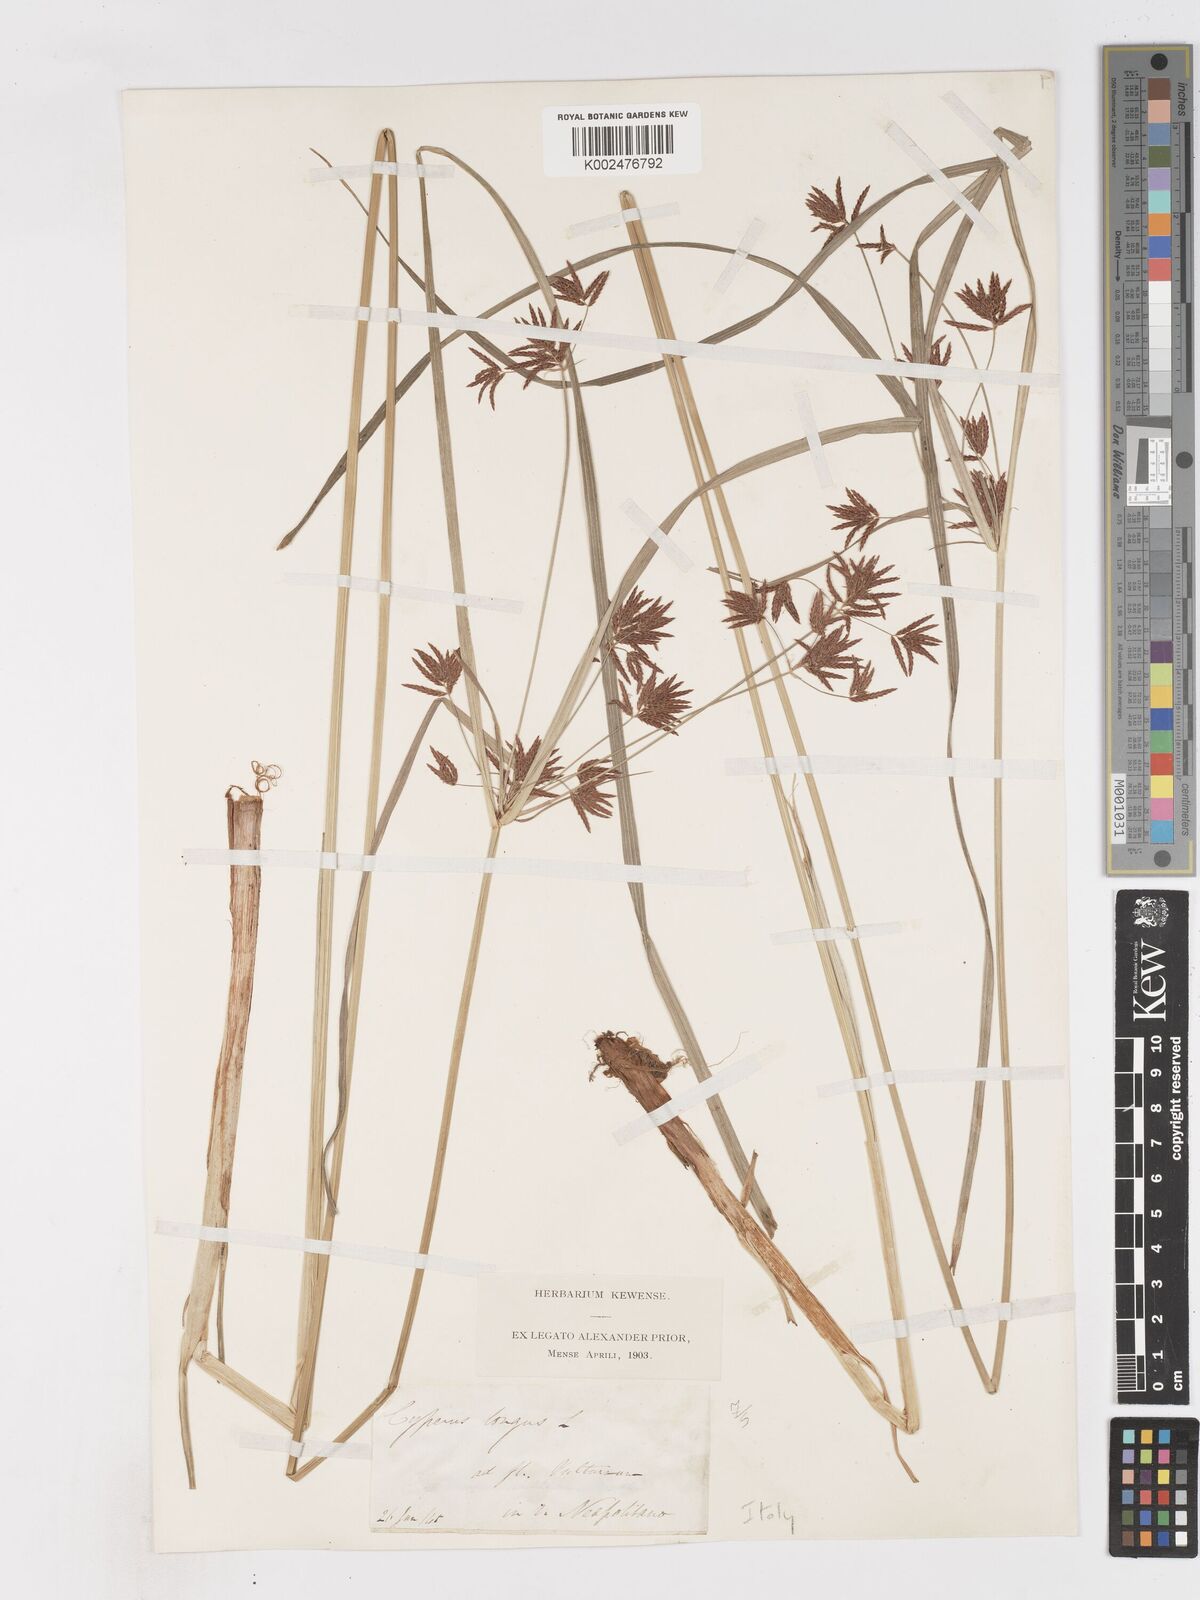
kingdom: Plantae
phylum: Tracheophyta
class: Liliopsida
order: Poales
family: Cyperaceae
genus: Cyperus
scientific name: Cyperus longus
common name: Galingale
